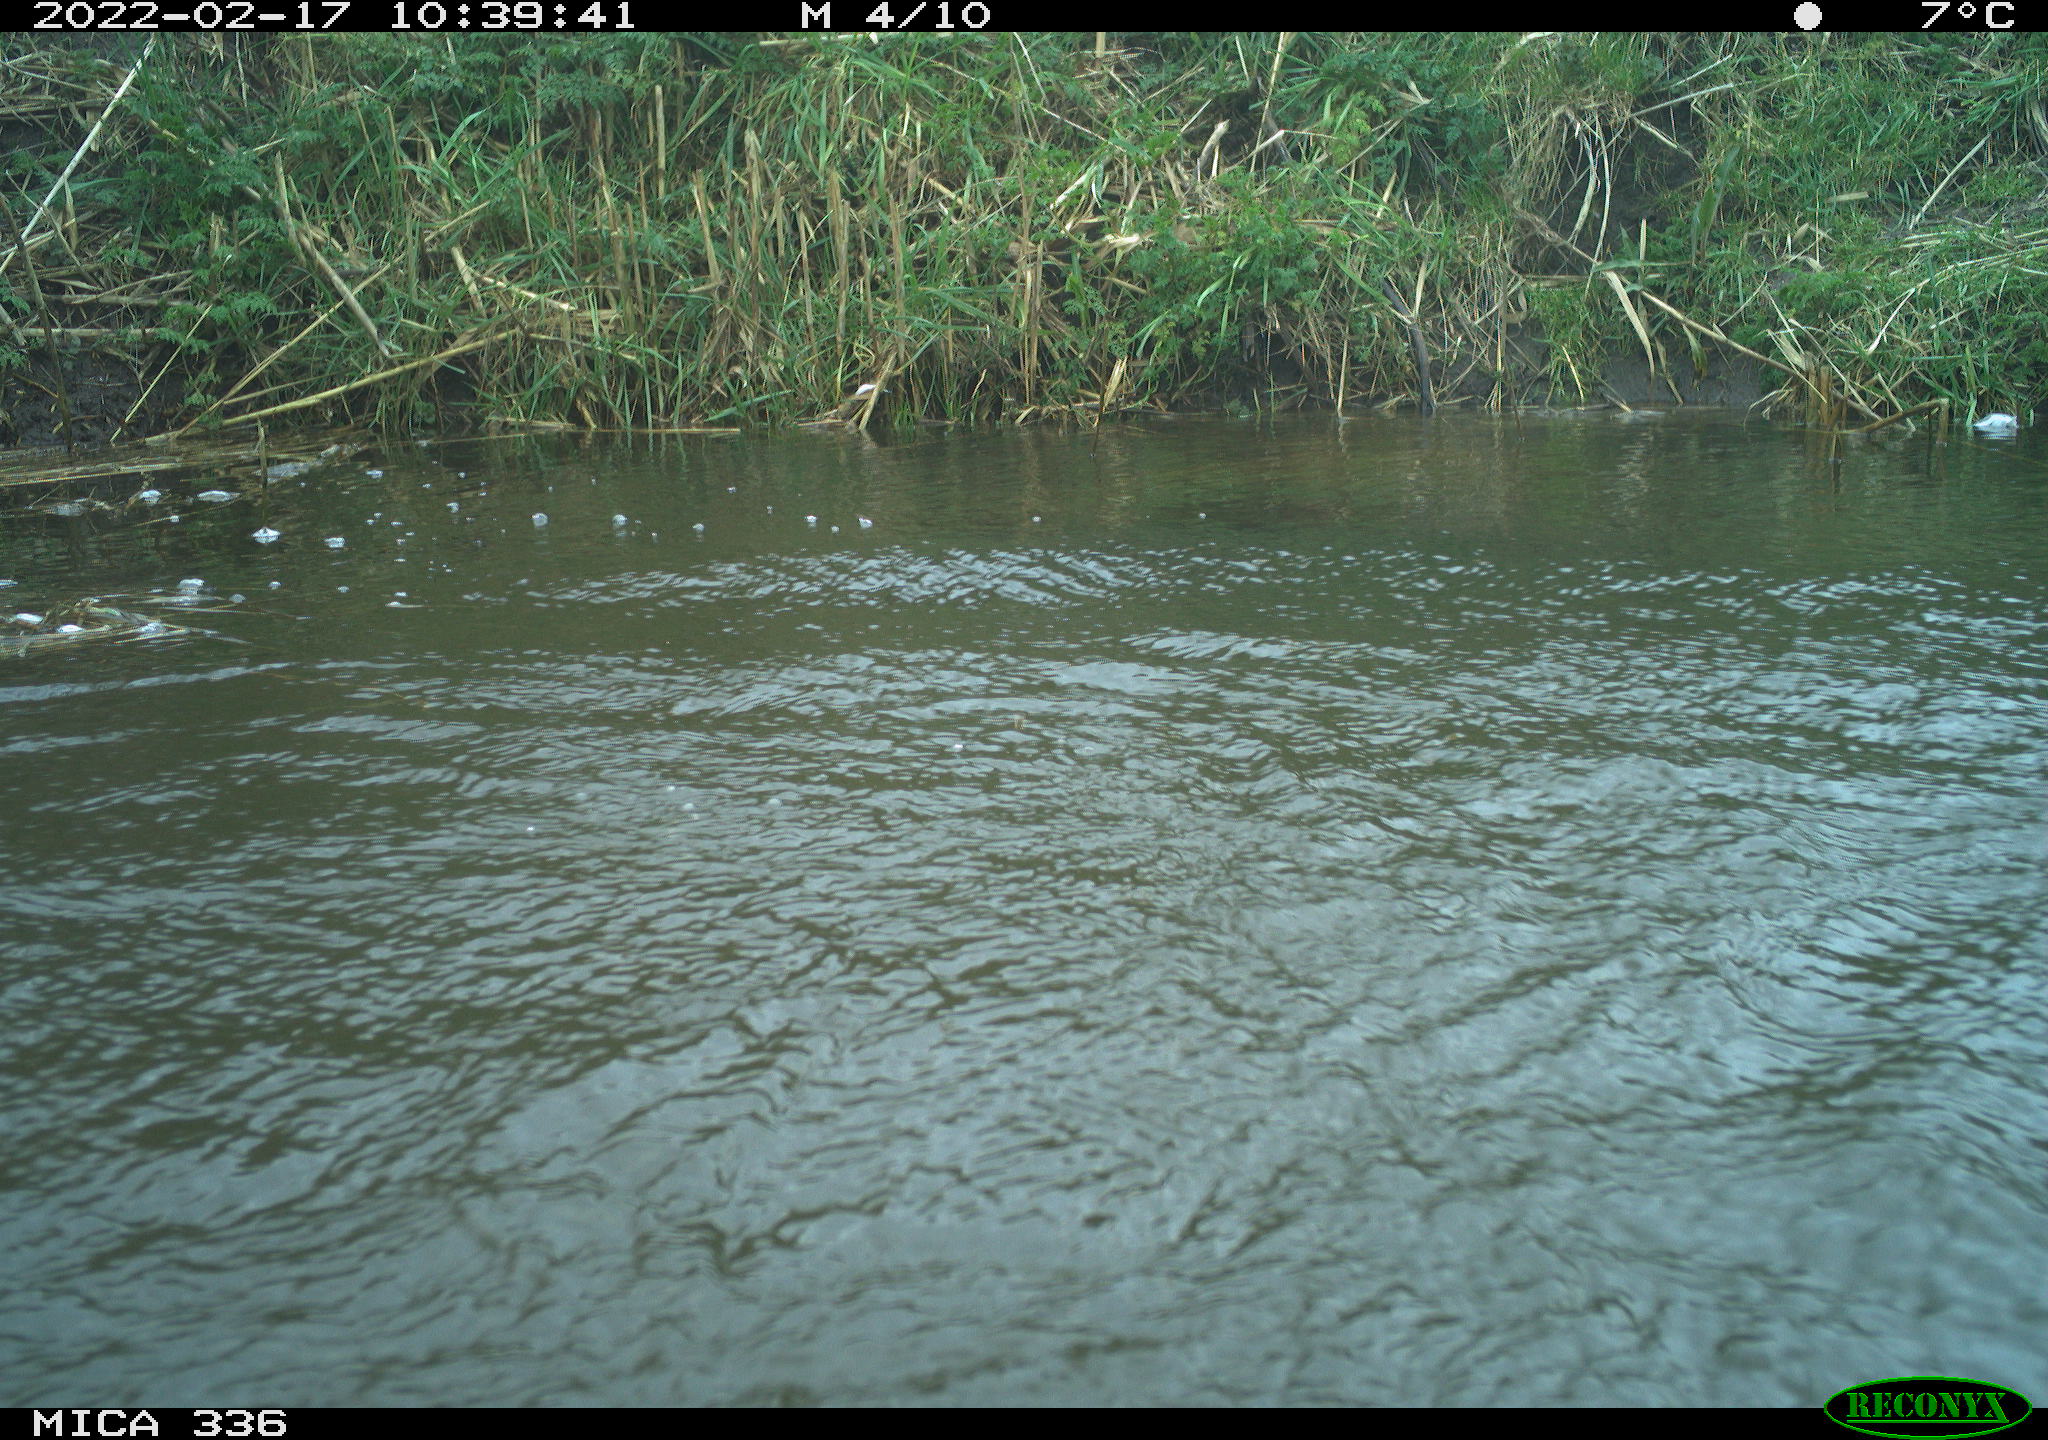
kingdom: Animalia
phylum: Chordata
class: Aves
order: Suliformes
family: Phalacrocoracidae
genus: Phalacrocorax
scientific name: Phalacrocorax carbo
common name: Great cormorant
